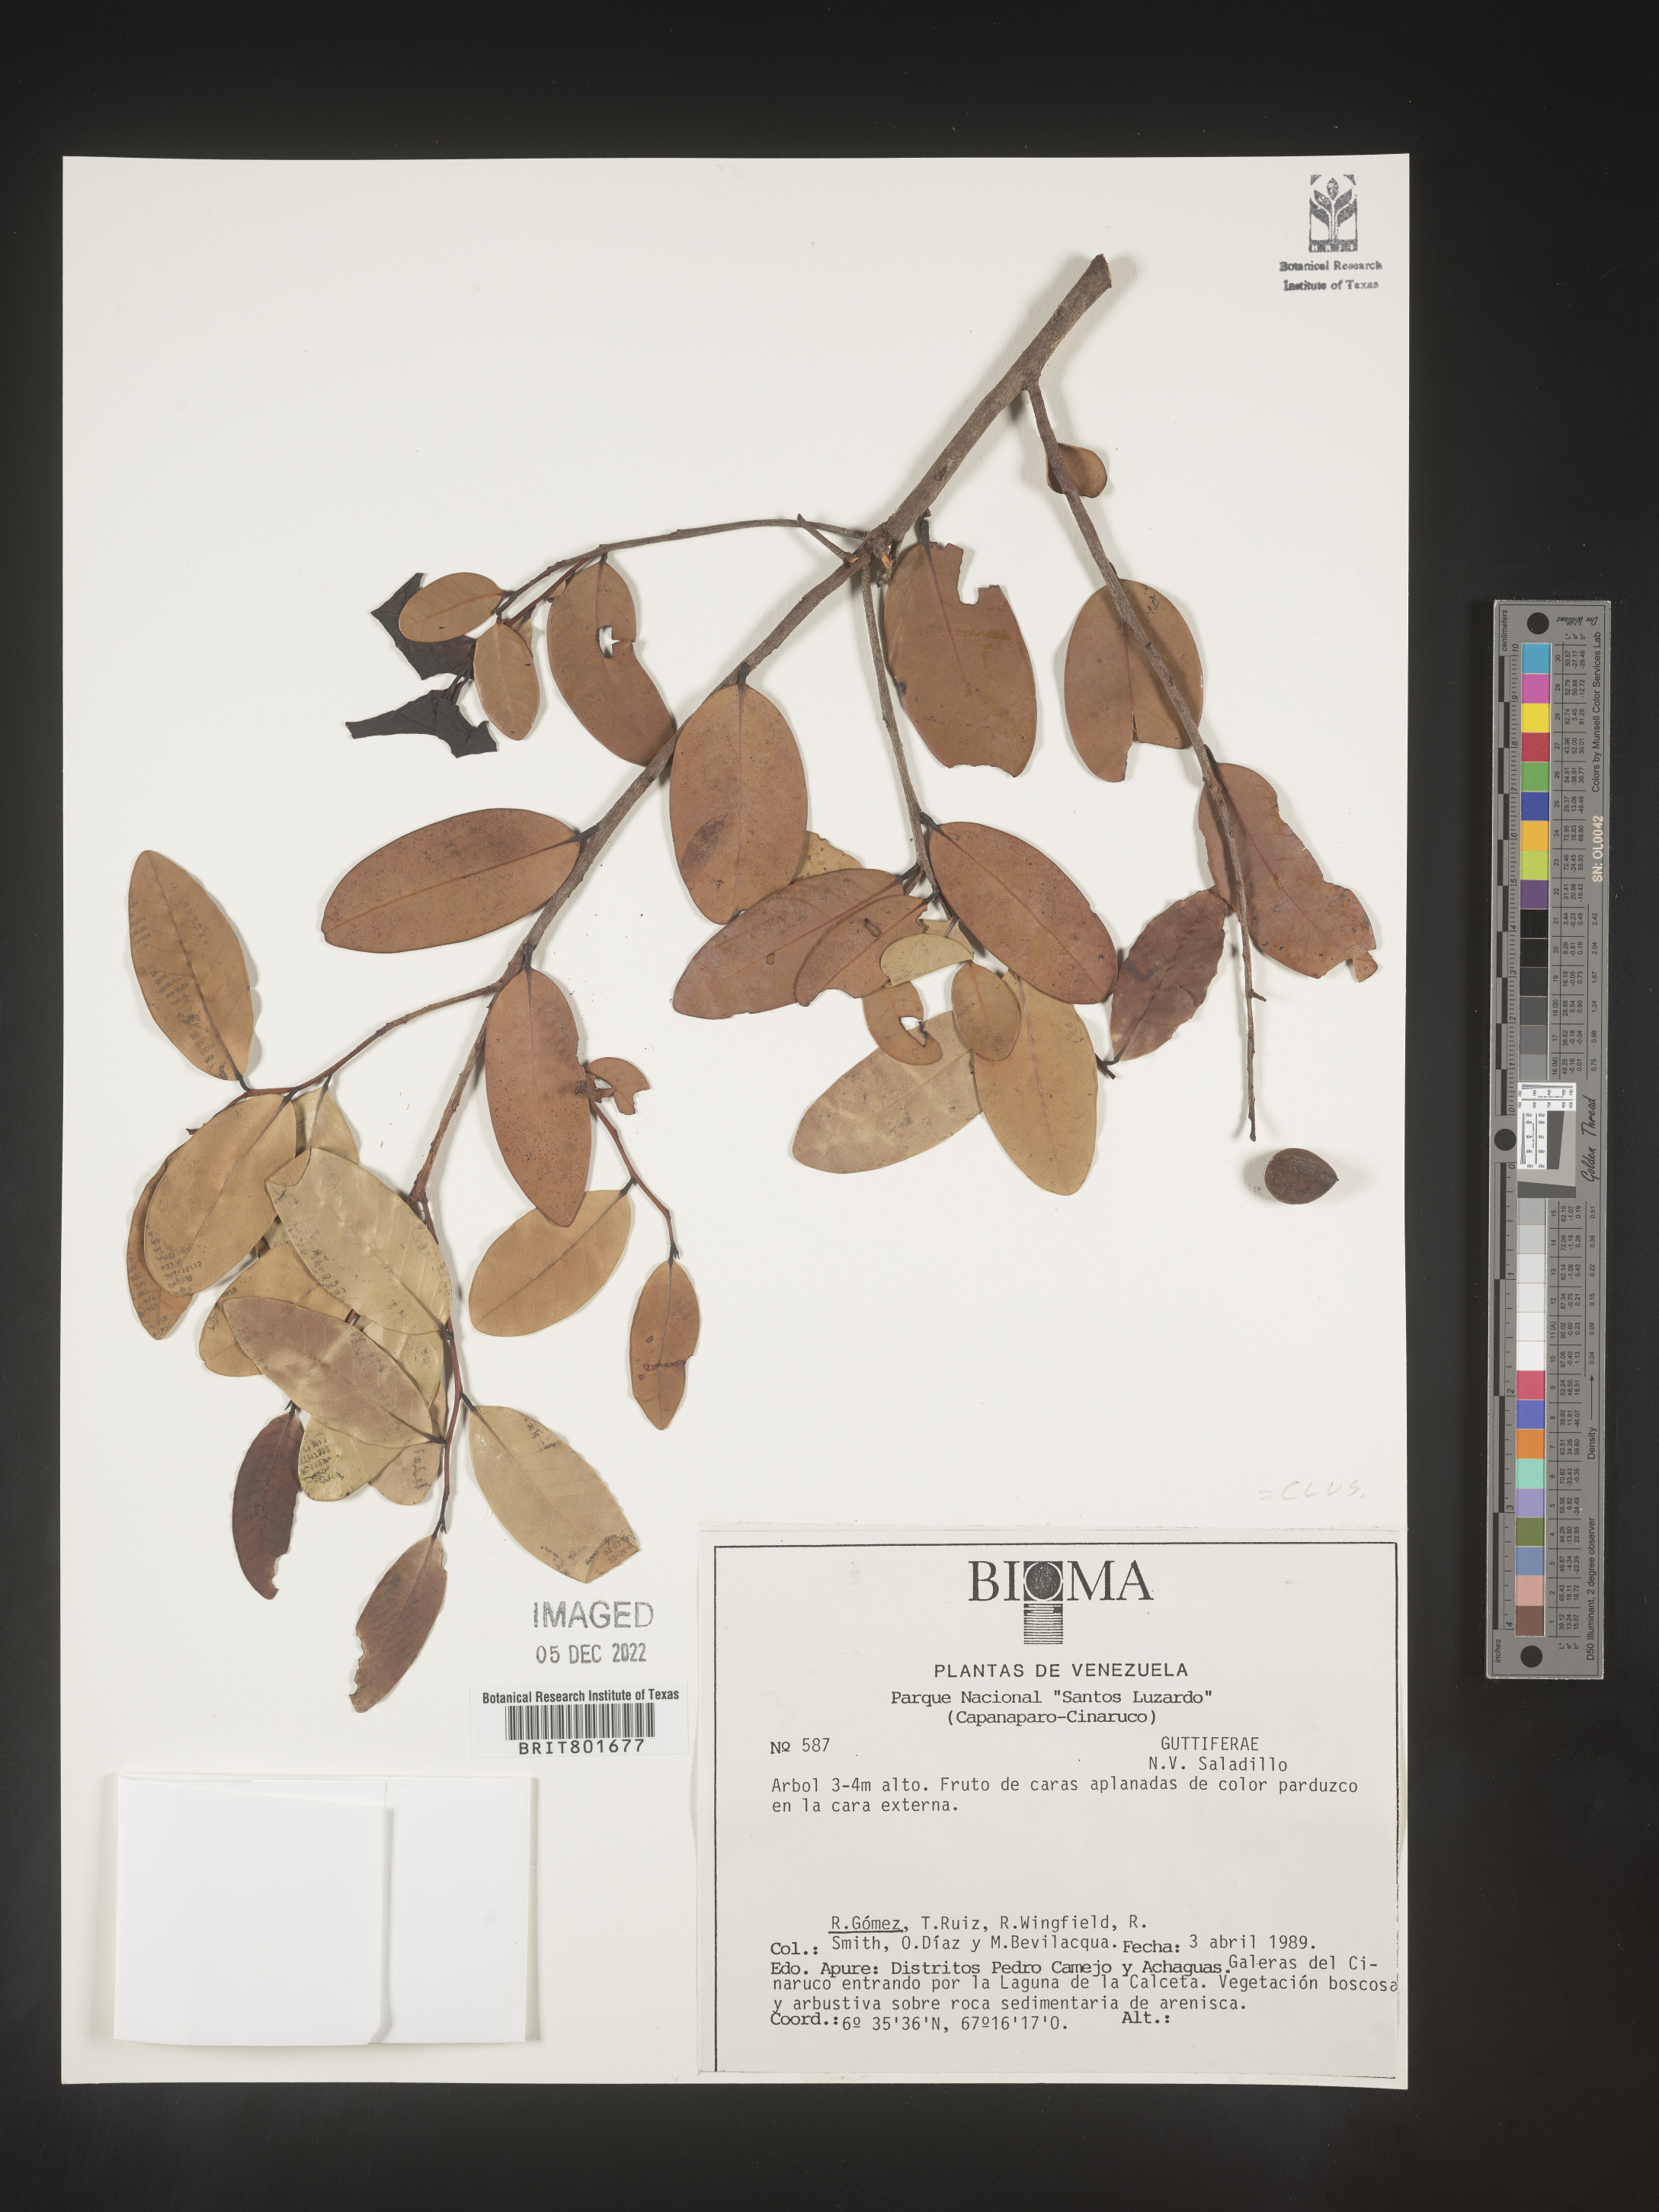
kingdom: Plantae
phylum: Tracheophyta
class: Magnoliopsida
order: Malpighiales
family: Clusiaceae
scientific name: Clusiaceae
